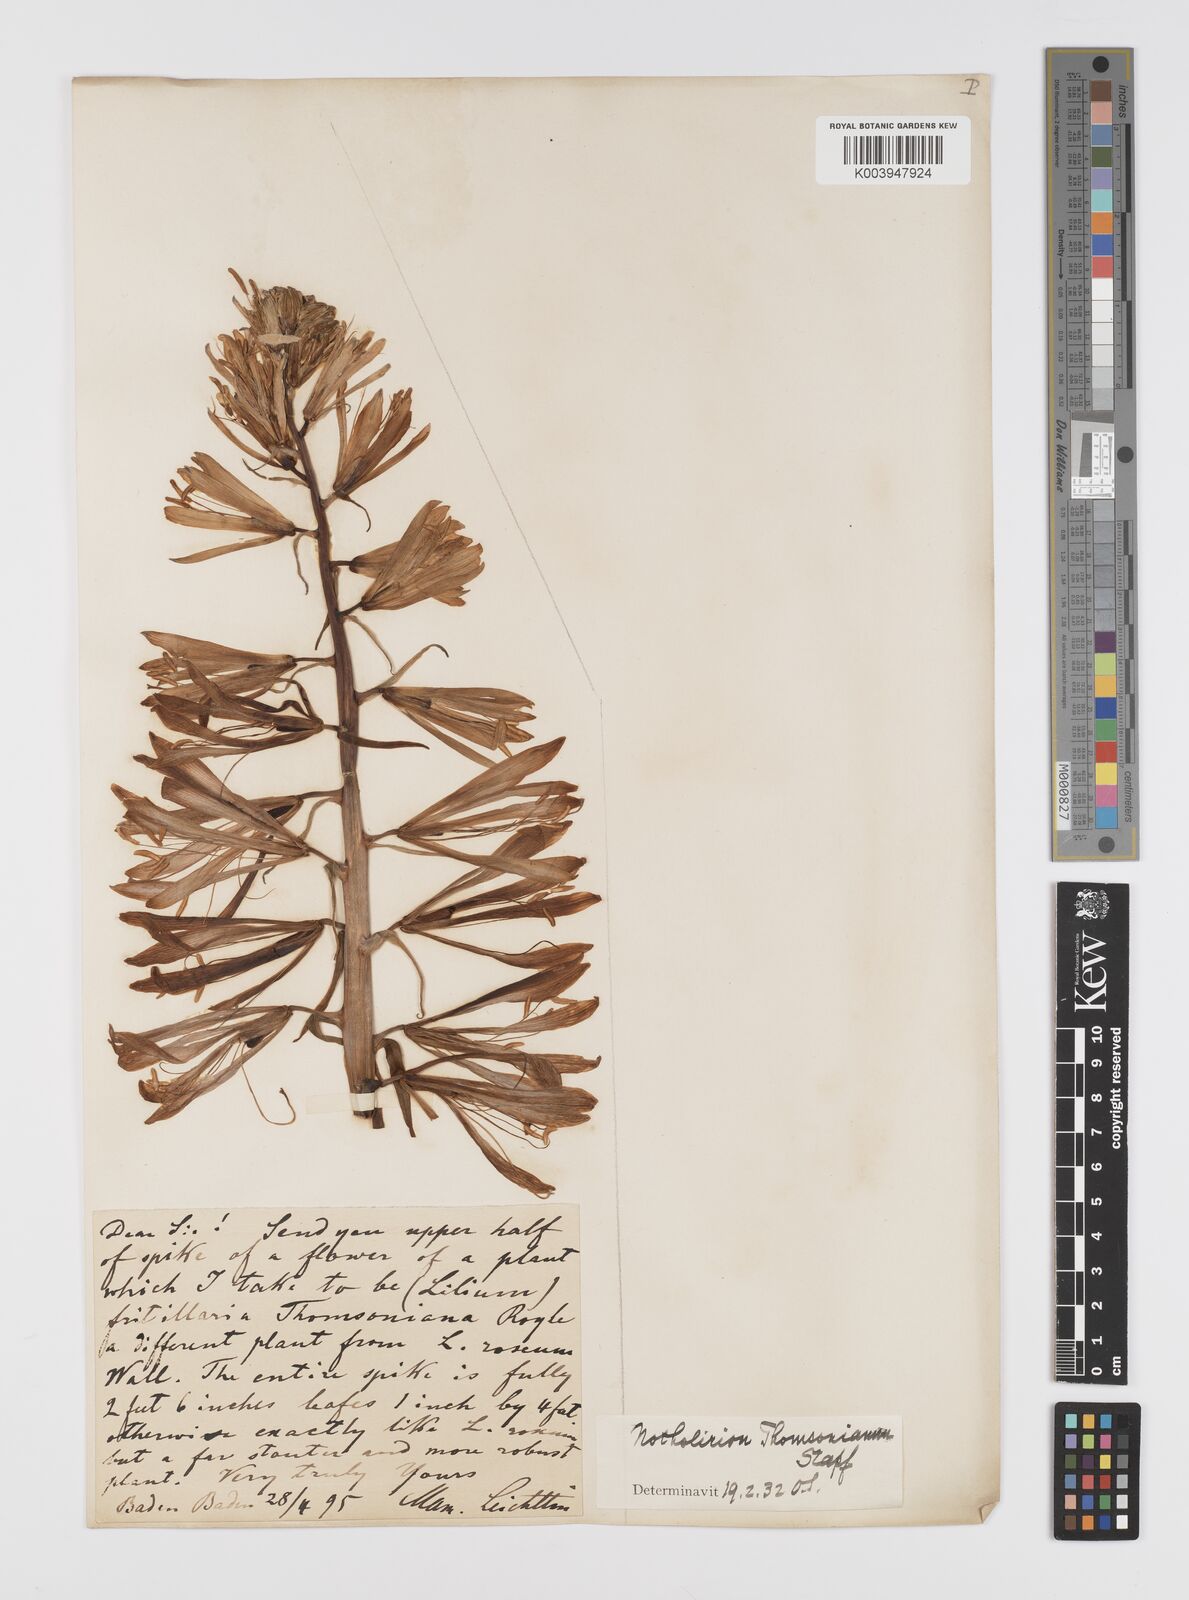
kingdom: Plantae
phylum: Tracheophyta
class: Liliopsida
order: Liliales
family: Liliaceae
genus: Notholirion
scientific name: Notholirion thomsonianum
